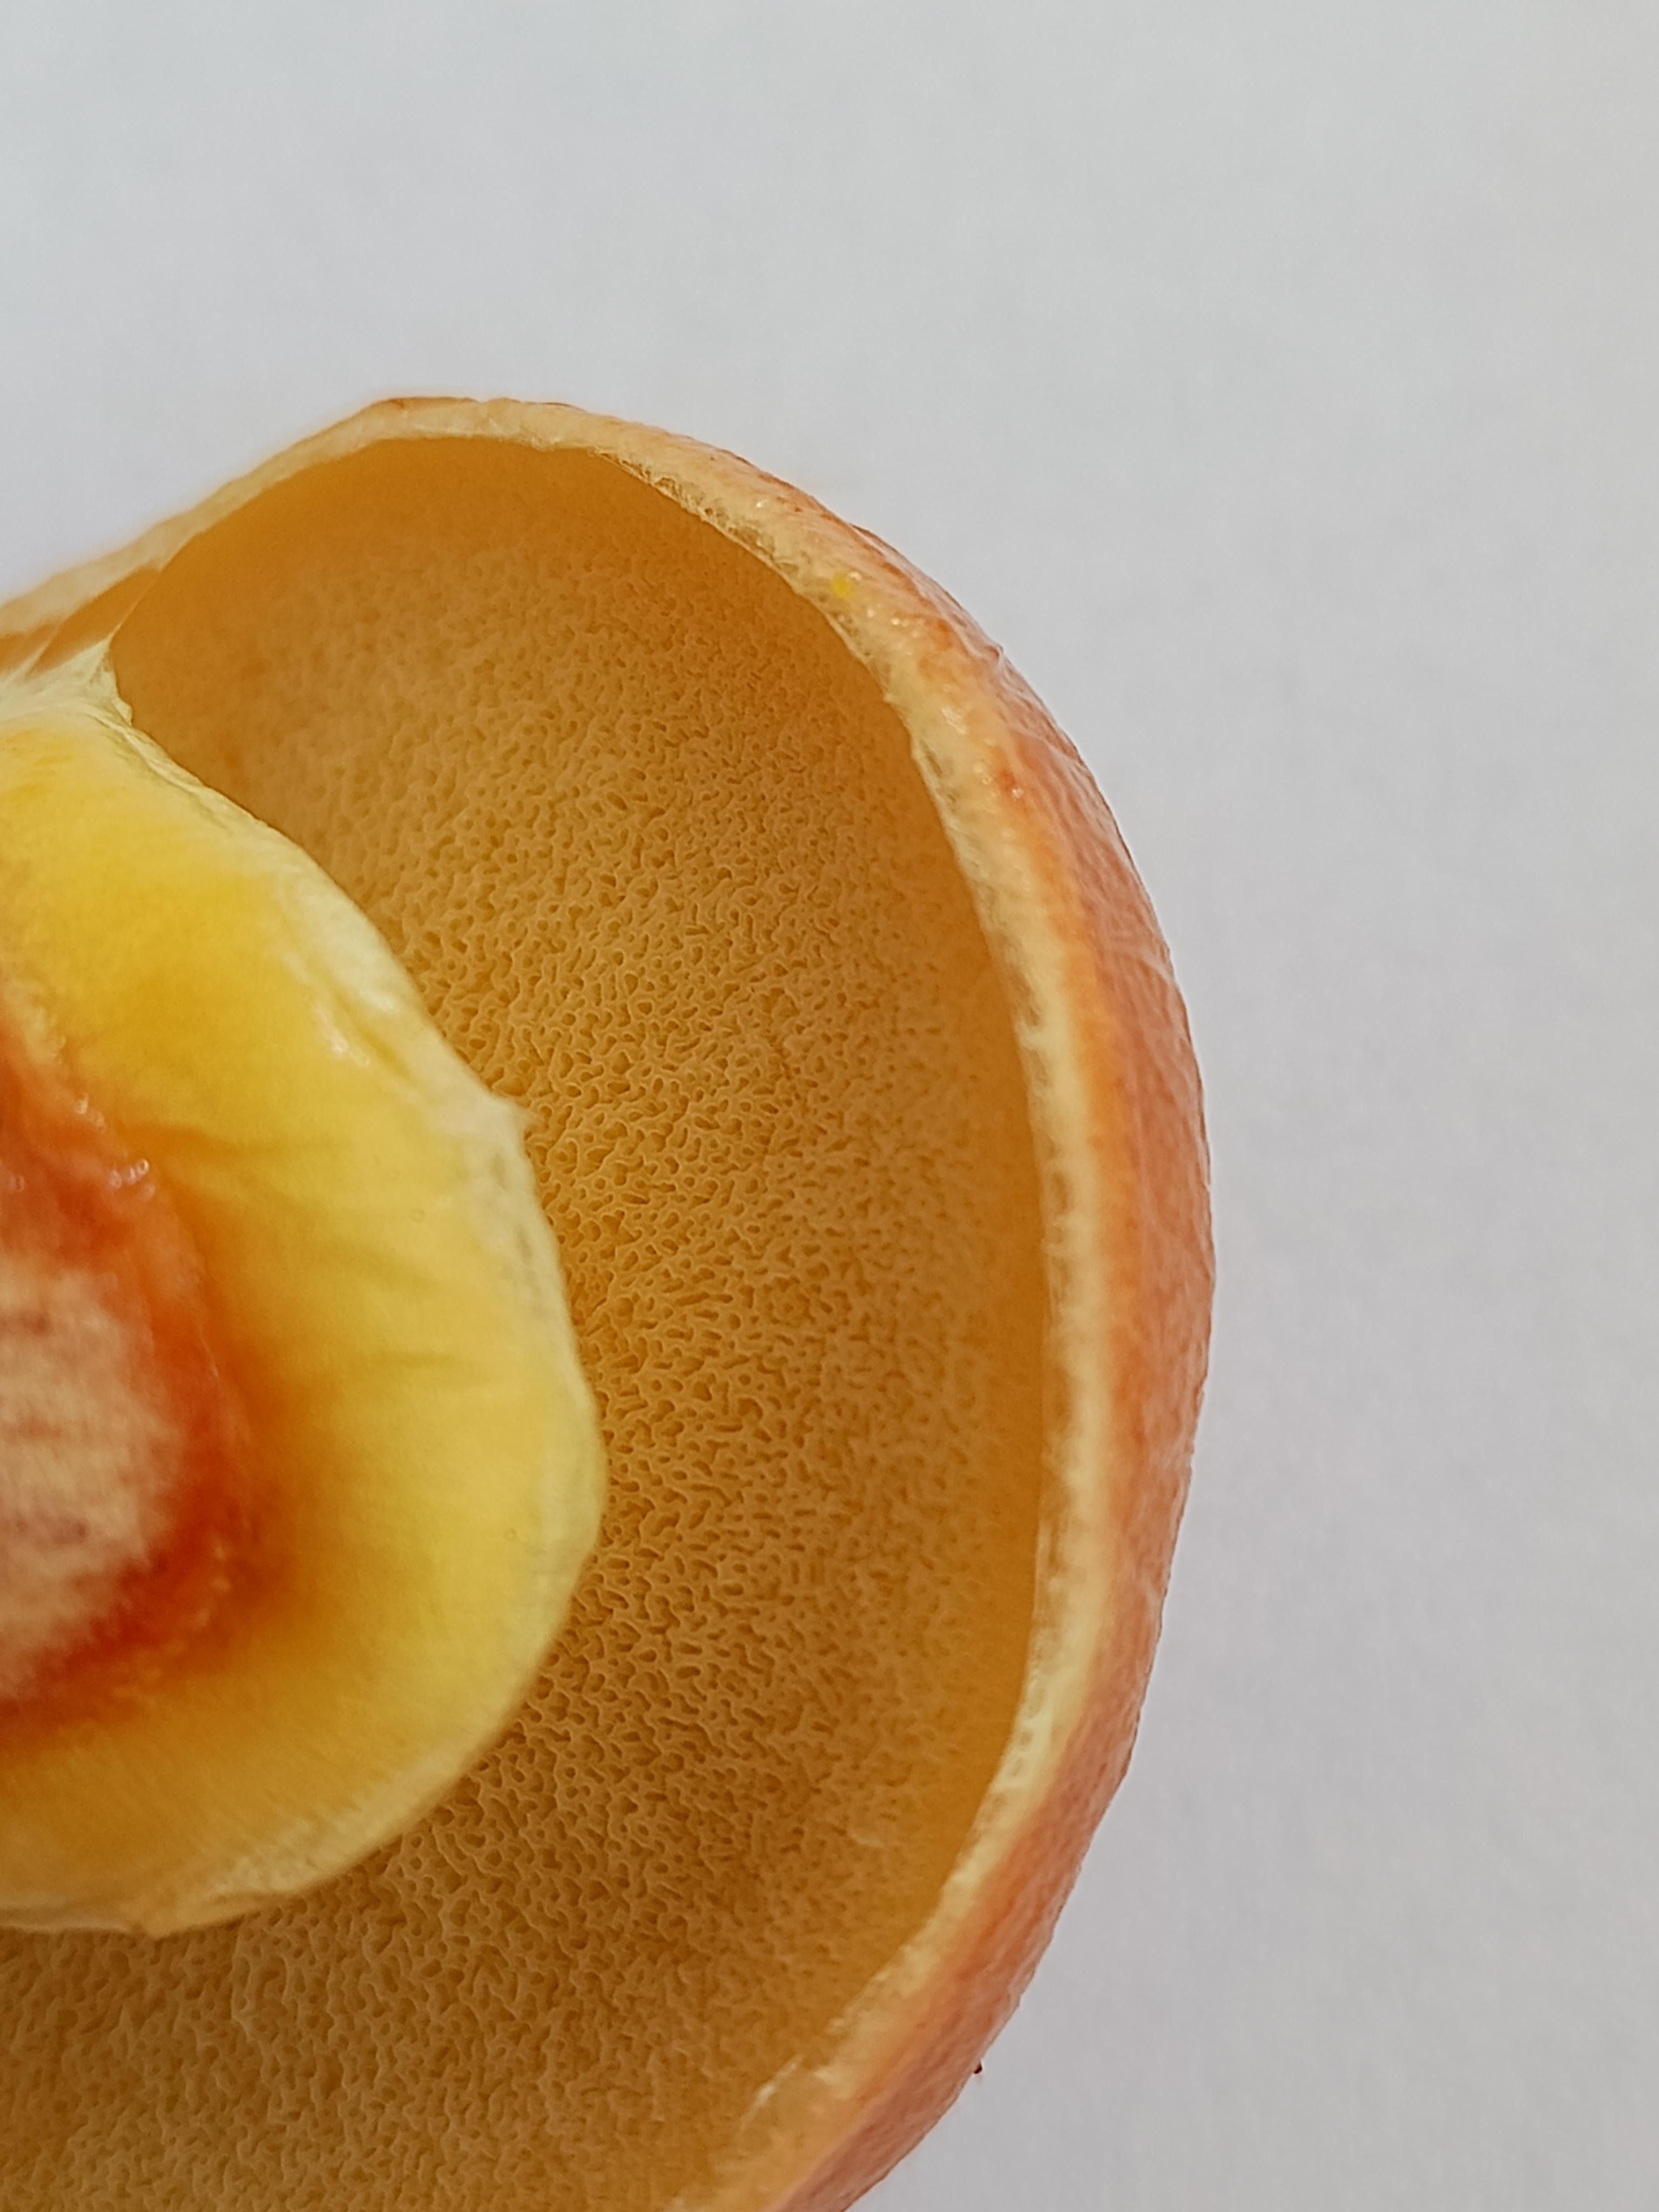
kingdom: Fungi
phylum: Basidiomycota
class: Agaricomycetes
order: Boletales
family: Suillaceae
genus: Suillus
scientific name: Suillus grevillei
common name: lærke-slimrørhat
